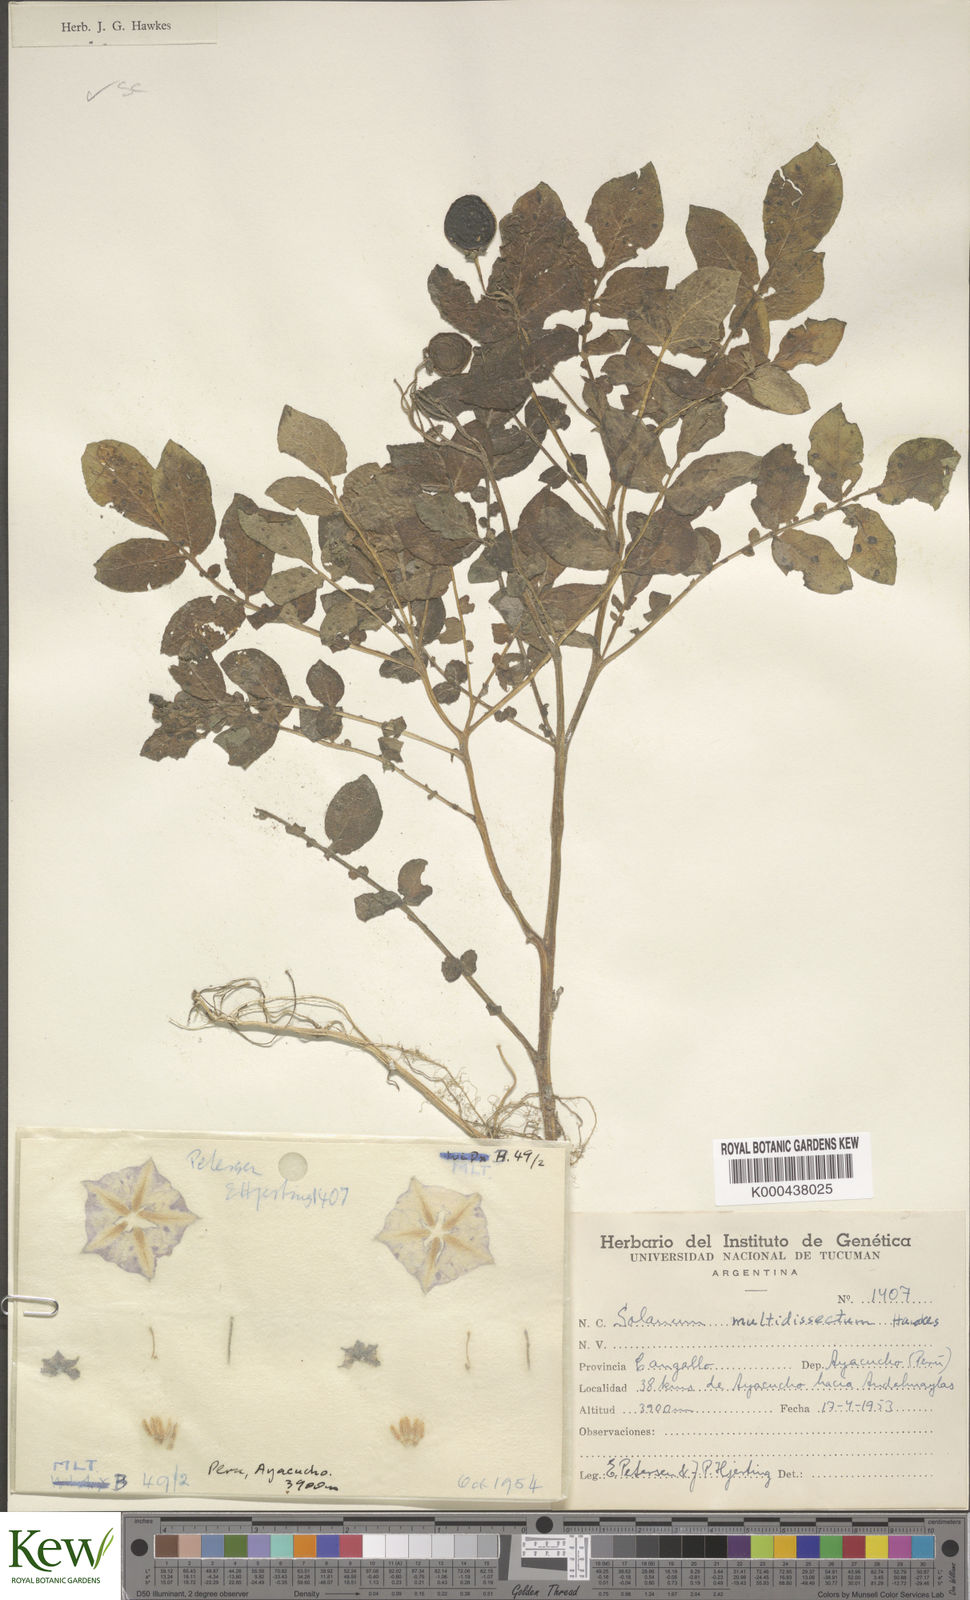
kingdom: Plantae
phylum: Tracheophyta
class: Magnoliopsida
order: Solanales
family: Solanaceae
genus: Solanum
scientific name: Solanum candolleanum
